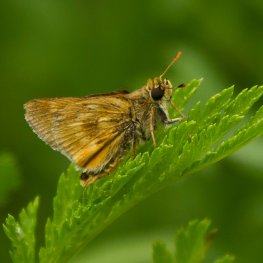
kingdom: Animalia
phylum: Arthropoda
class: Insecta
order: Lepidoptera
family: Hesperiidae
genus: Polites
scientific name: Polites
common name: Long Dash Skipper
